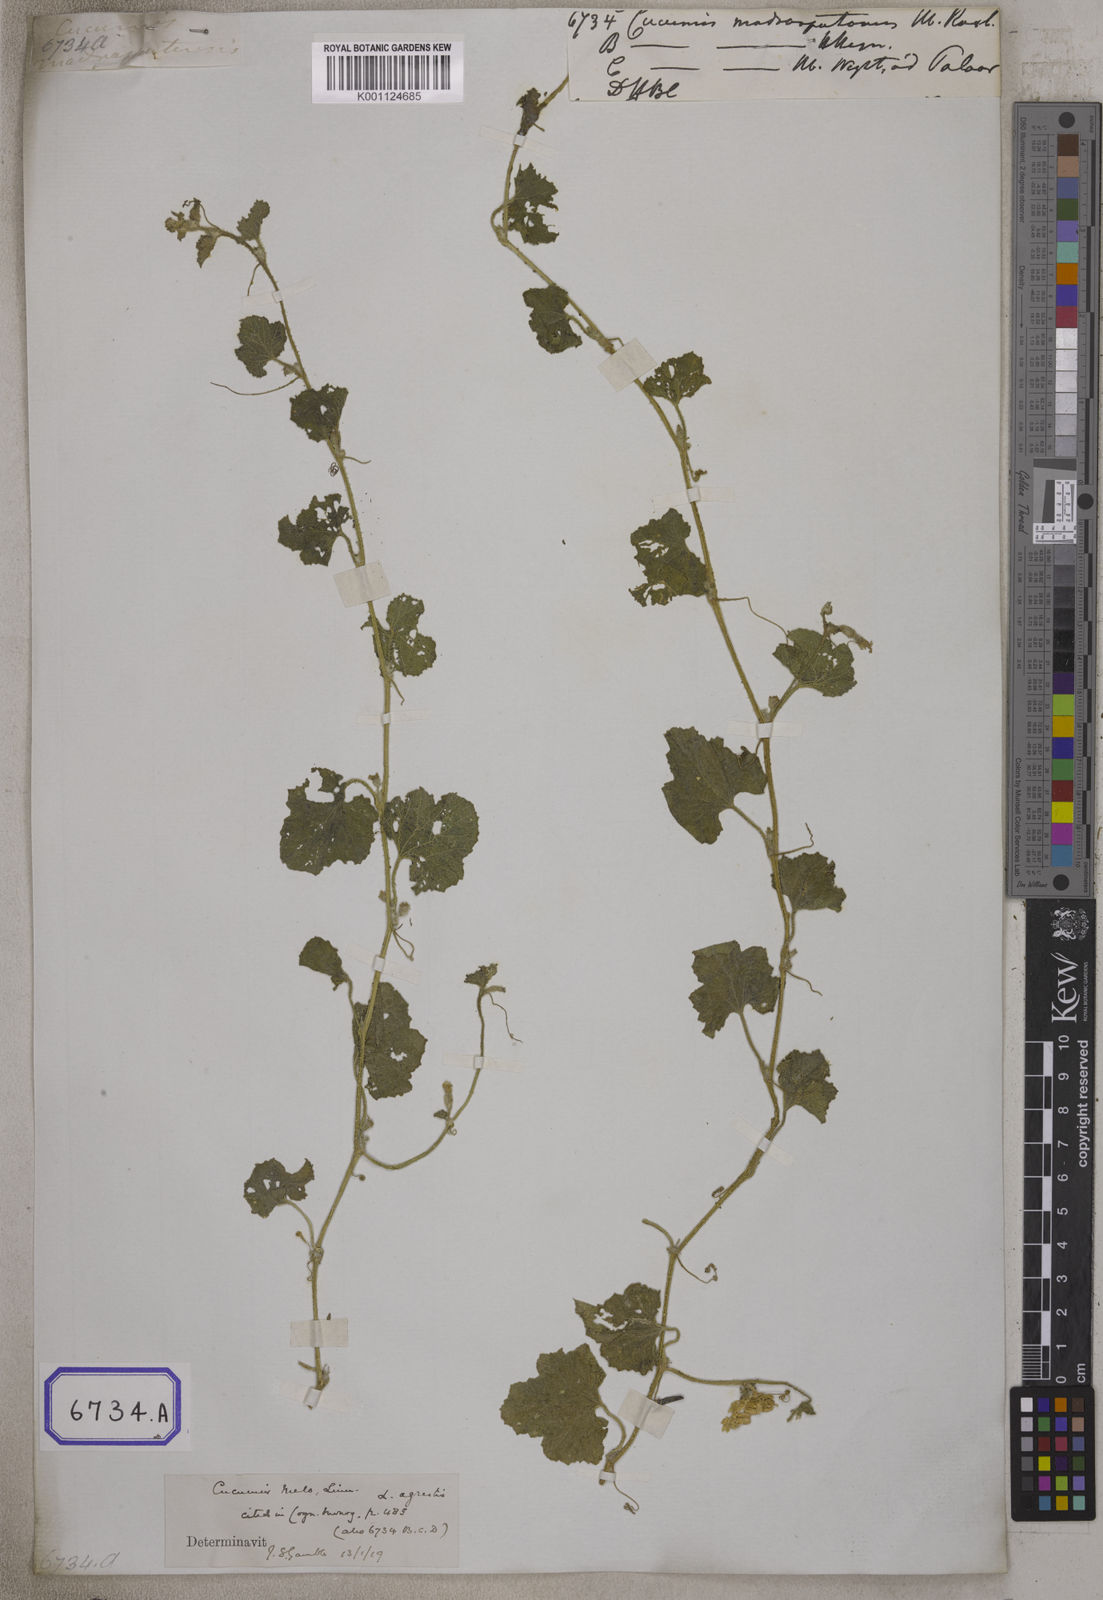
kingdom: Plantae
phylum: Tracheophyta
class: Magnoliopsida
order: Cucurbitales
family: Cucurbitaceae
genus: Cucumis
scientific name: Cucumis
